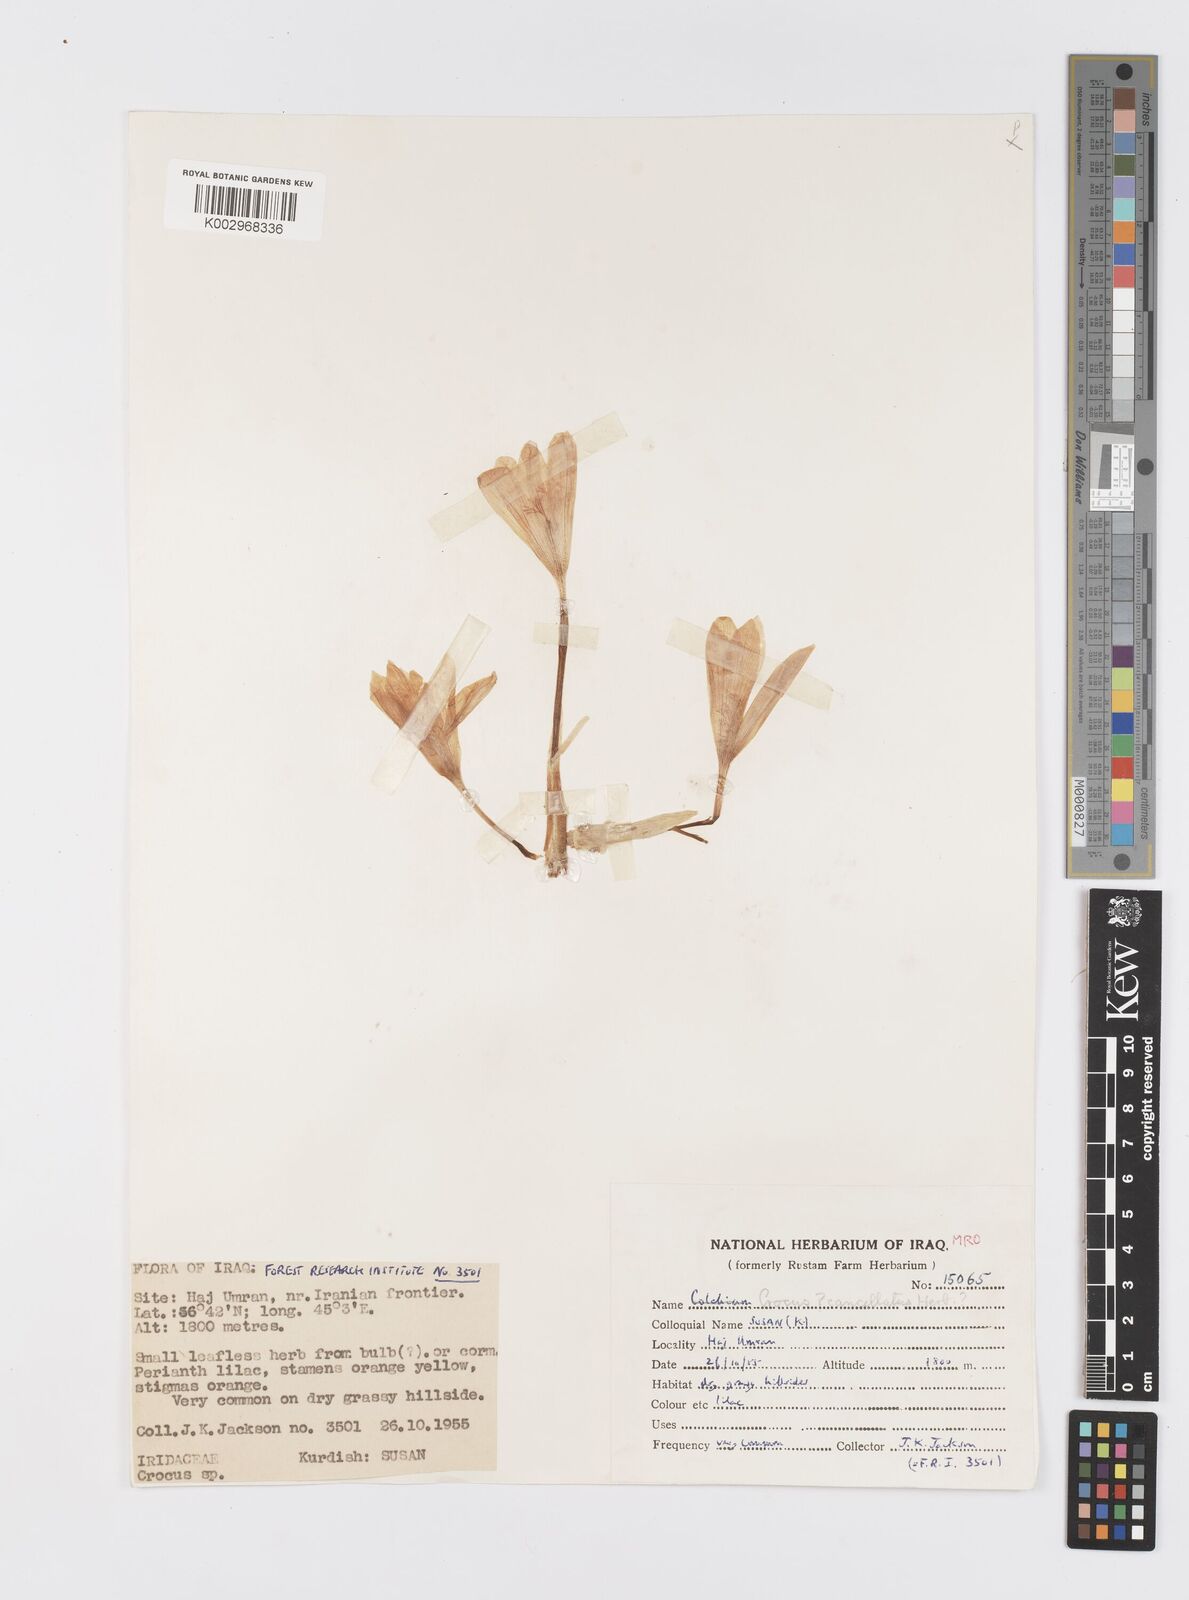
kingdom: Plantae
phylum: Tracheophyta
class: Liliopsida
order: Asparagales
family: Iridaceae
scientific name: Iridaceae
